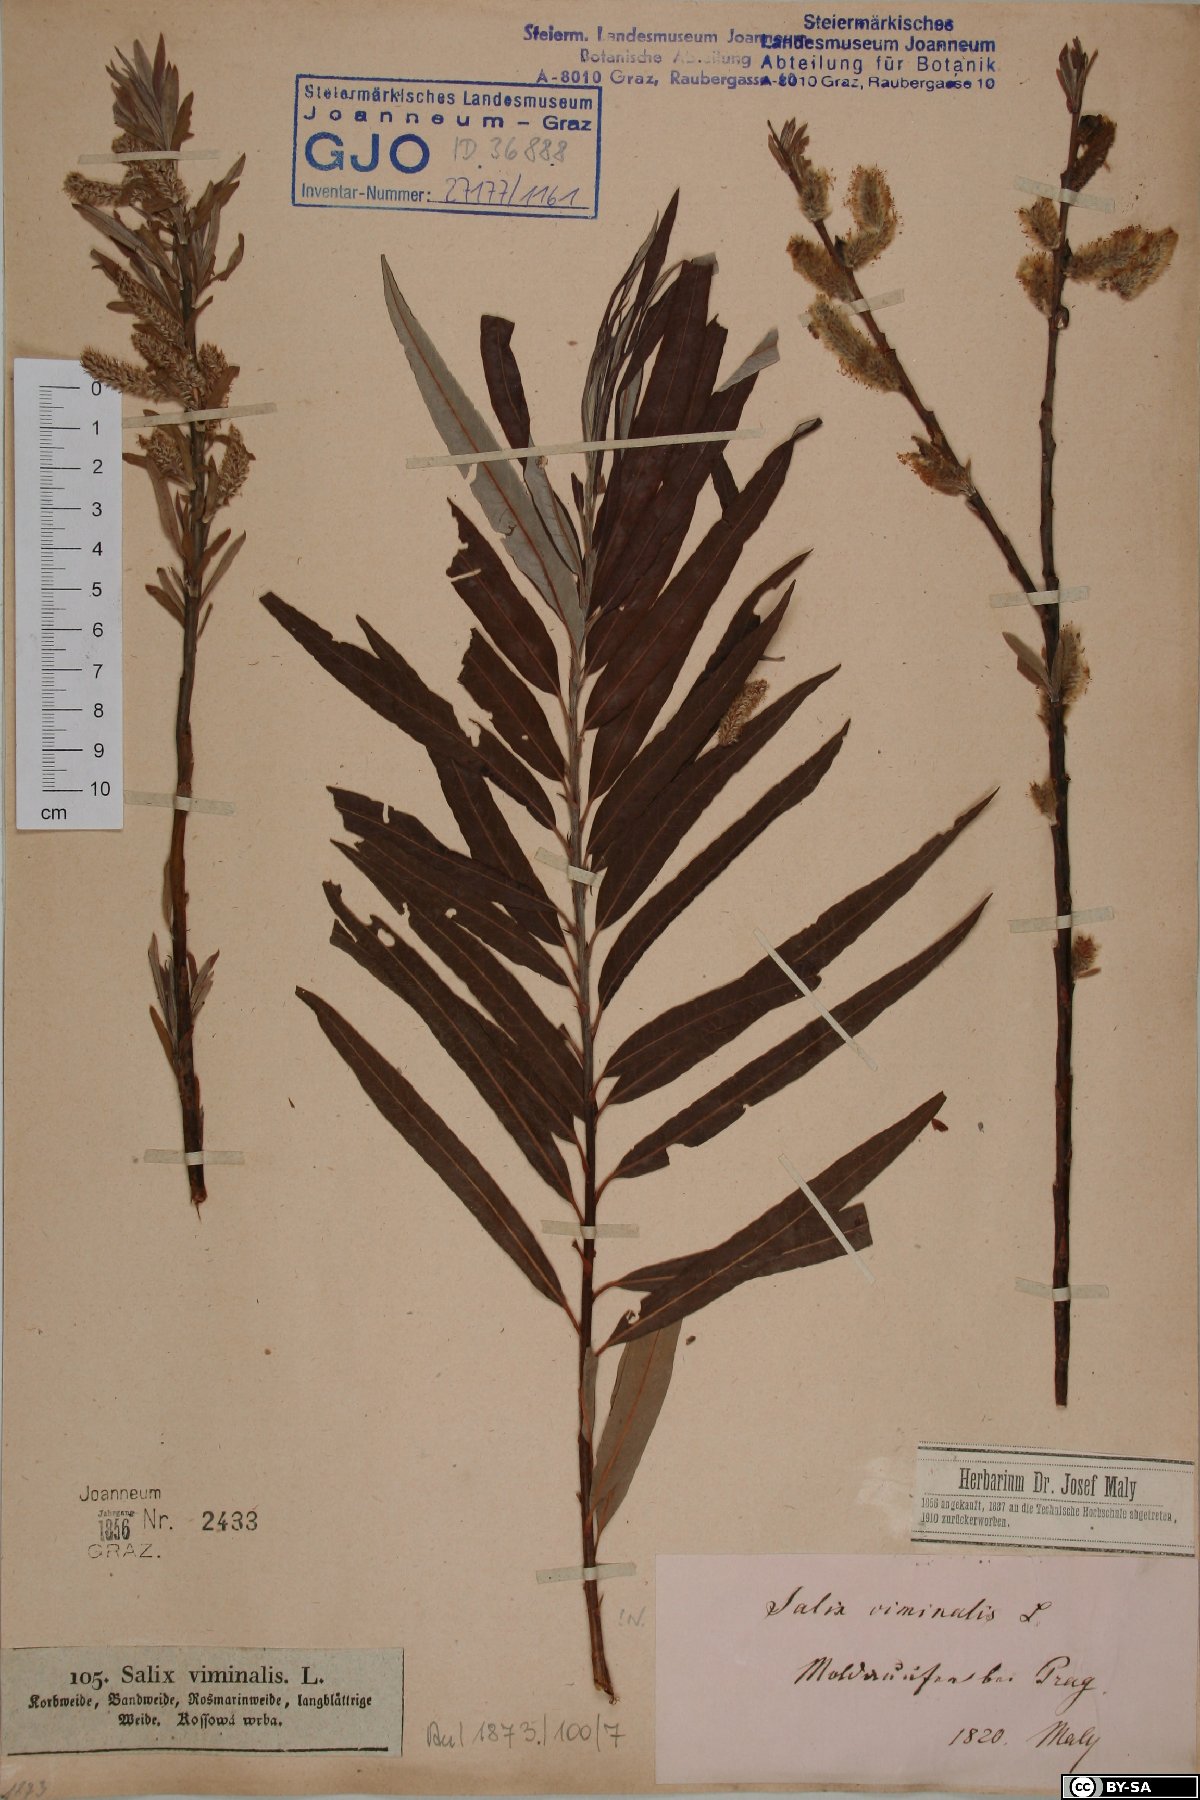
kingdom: Plantae
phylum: Tracheophyta
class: Magnoliopsida
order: Malpighiales
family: Salicaceae
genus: Salix
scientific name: Salix viminalis
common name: Osier
